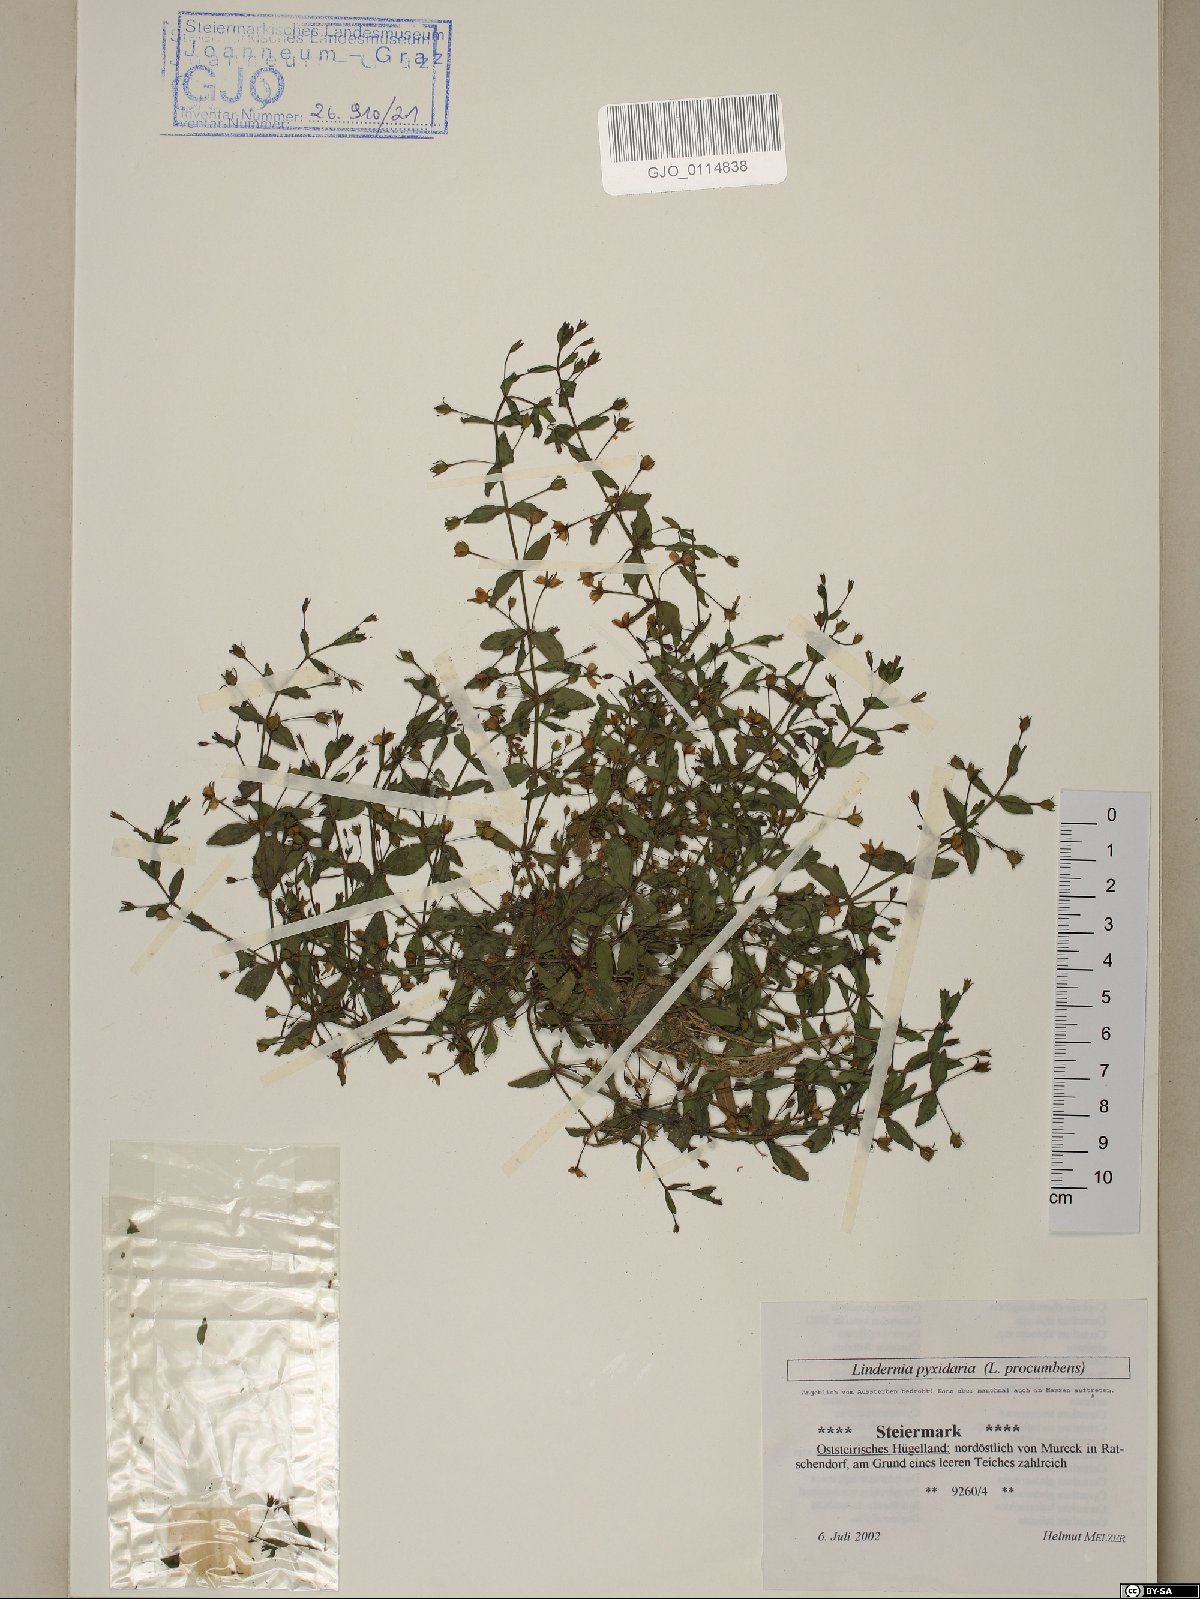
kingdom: Plantae
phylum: Tracheophyta
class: Magnoliopsida
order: Lamiales
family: Linderniaceae
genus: Lindernia
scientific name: Lindernia procumbens
